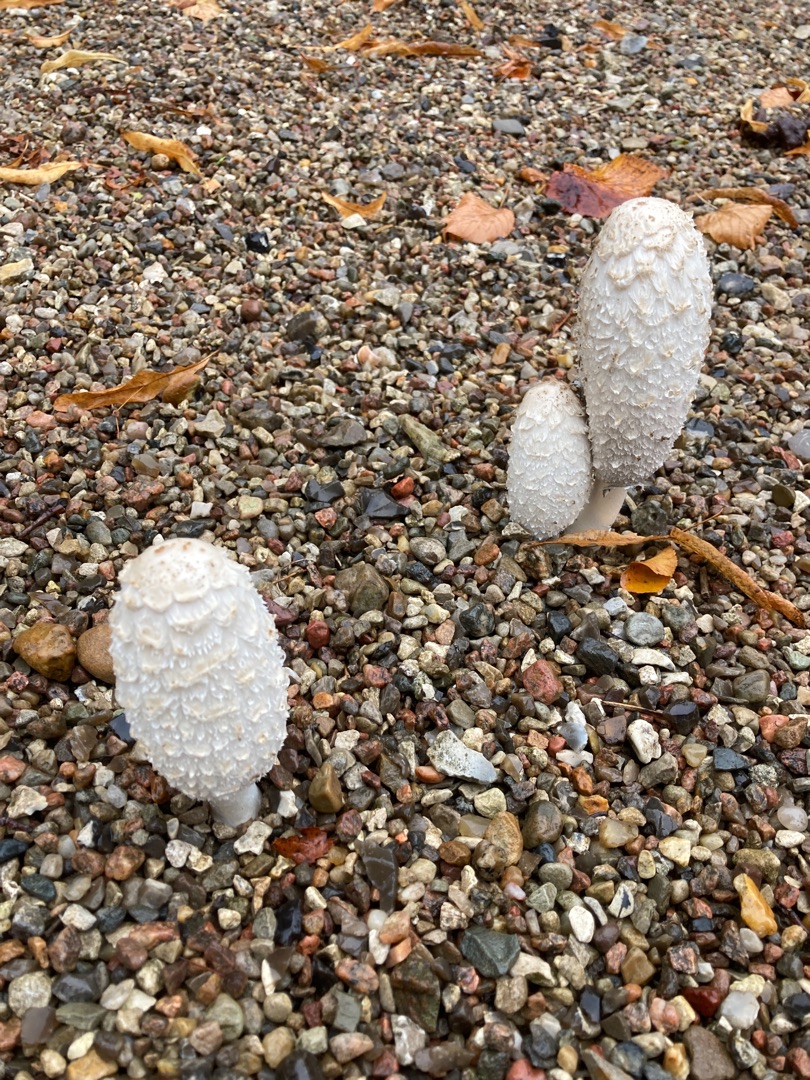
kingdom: Fungi
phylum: Basidiomycota
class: Agaricomycetes
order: Agaricales
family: Agaricaceae
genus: Coprinus
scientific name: Coprinus comatus
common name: Stor parykhat
